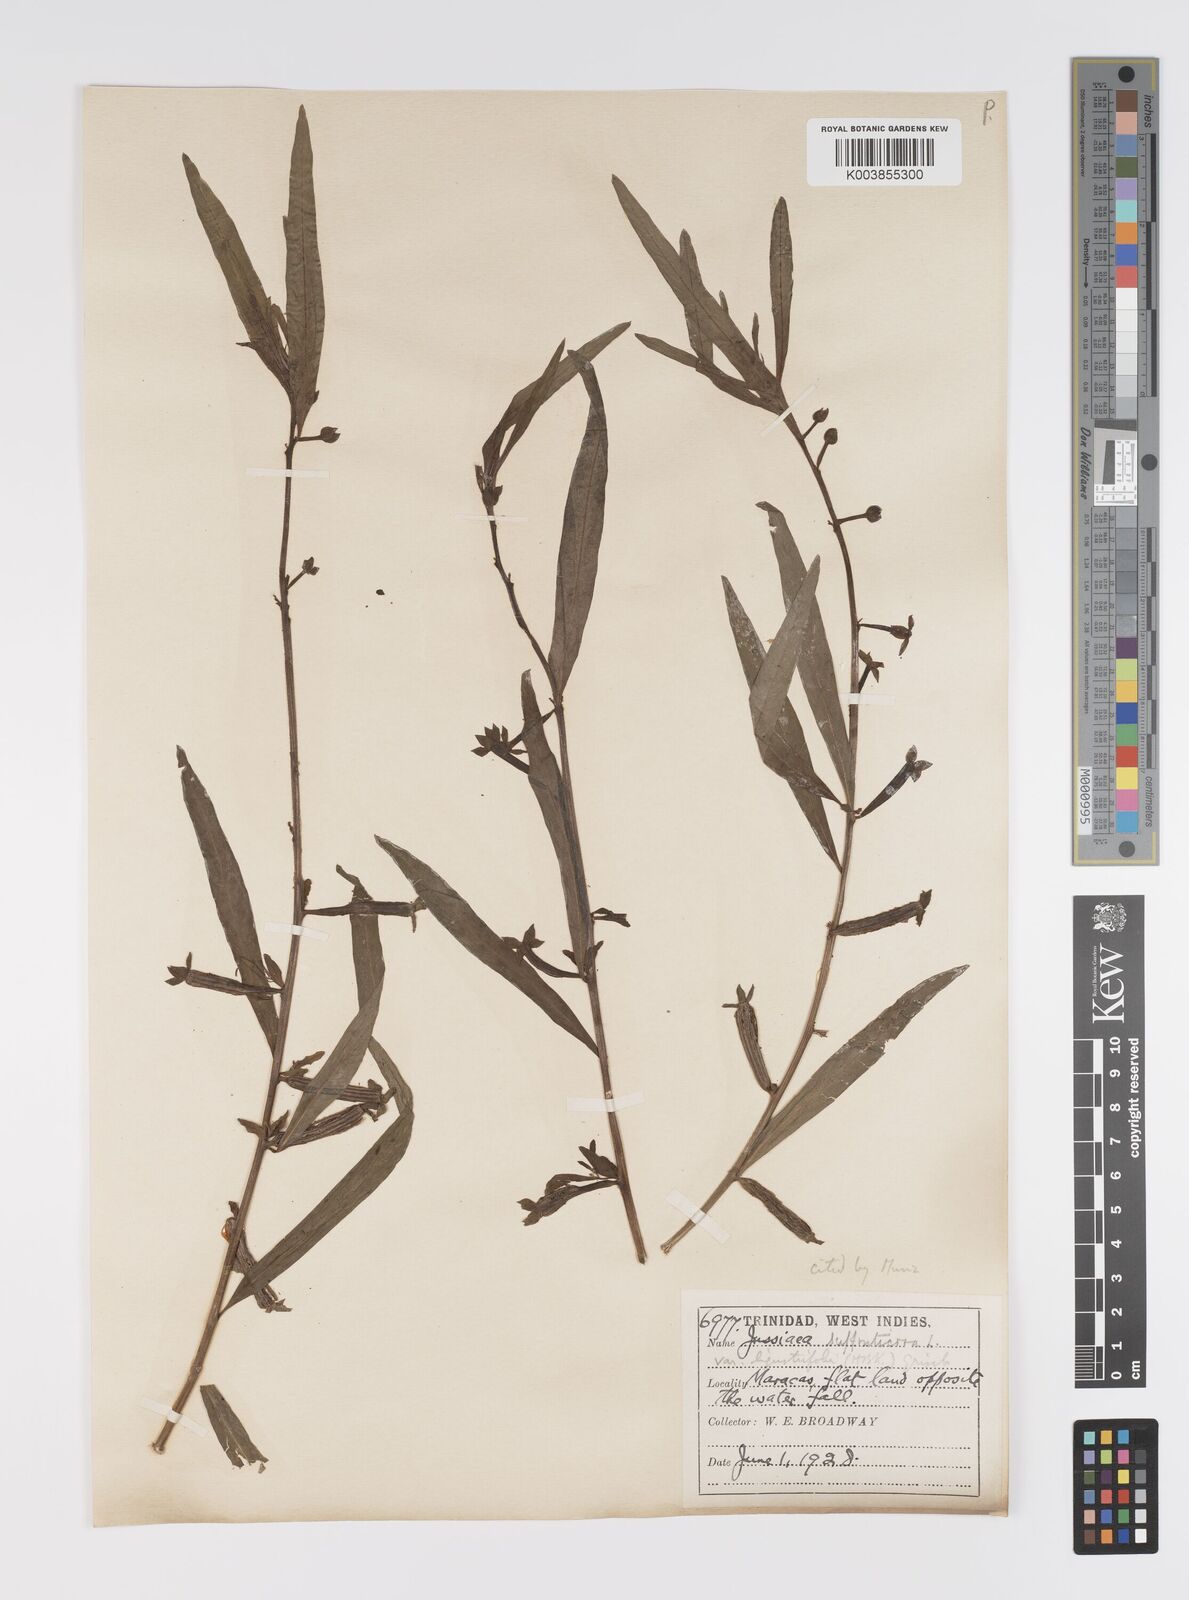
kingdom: Plantae
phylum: Tracheophyta
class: Magnoliopsida
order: Myrtales
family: Onagraceae
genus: Ludwigia
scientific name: Ludwigia
